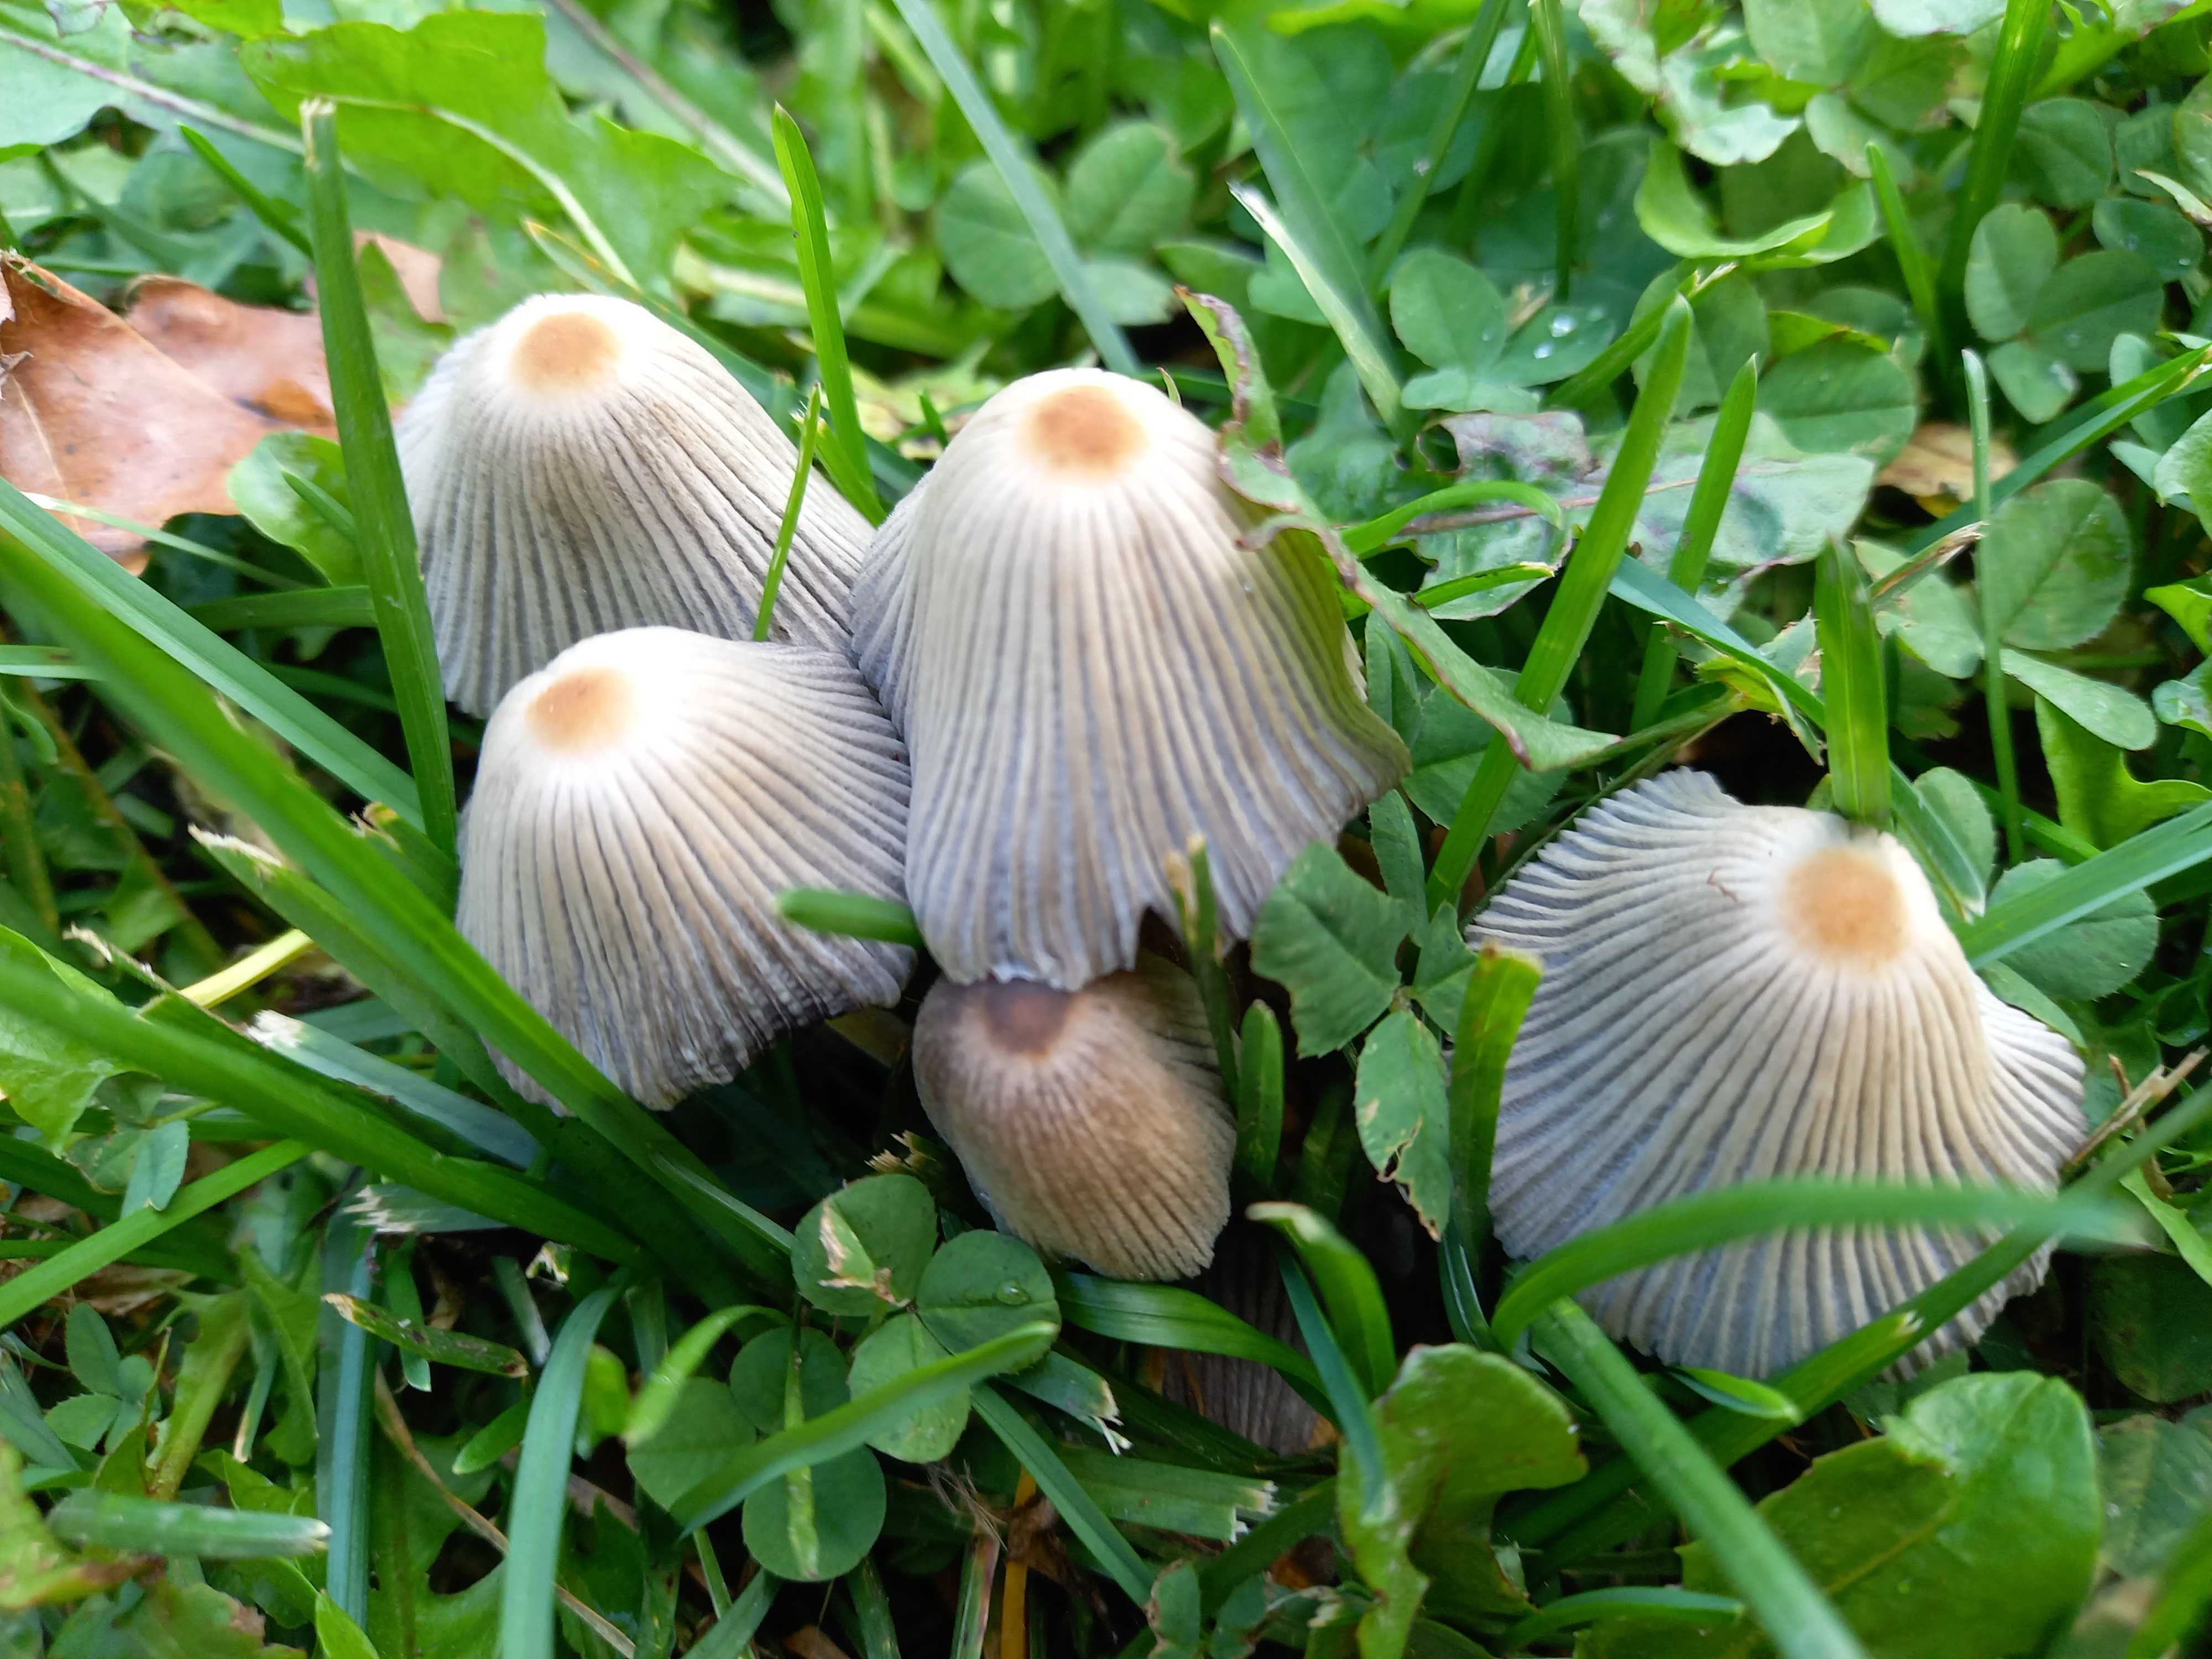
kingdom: Fungi
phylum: Basidiomycota
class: Agaricomycetes
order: Agaricales
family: Psathyrellaceae
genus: Coprinellus
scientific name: Coprinellus micaceus
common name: glimmer-blækhat
